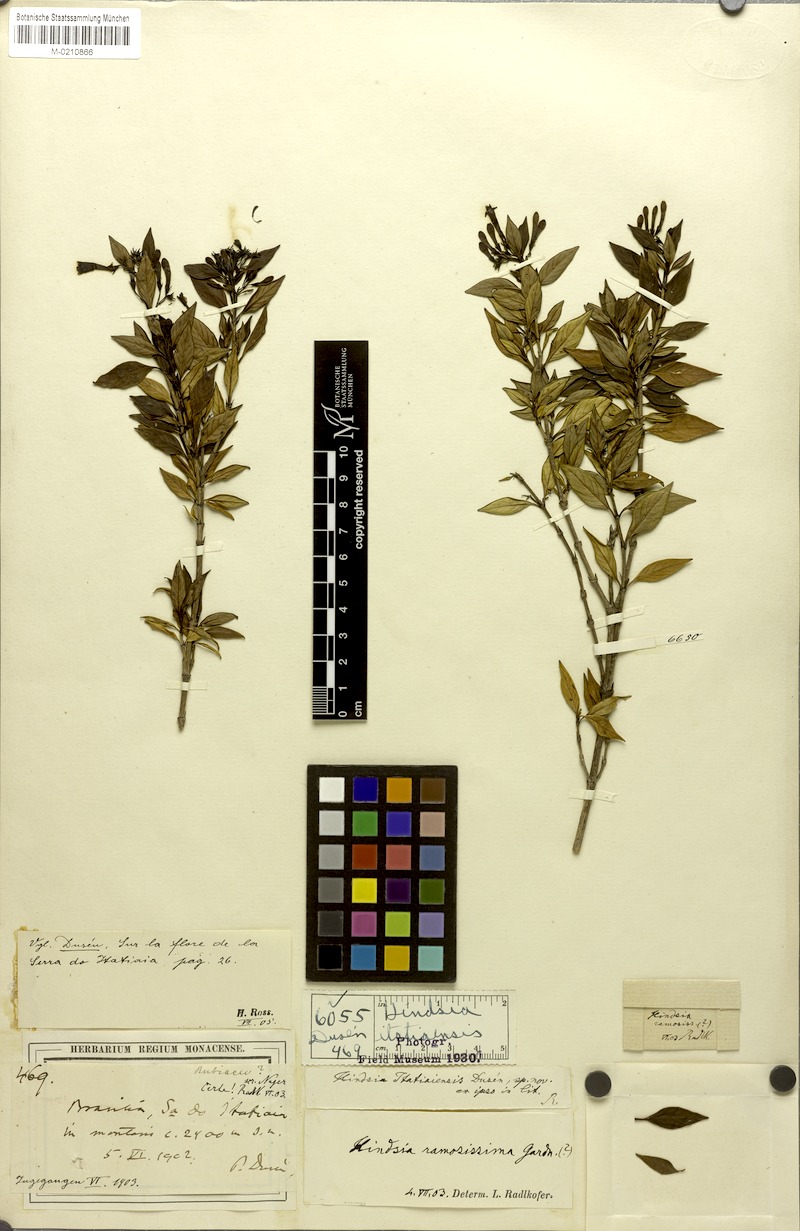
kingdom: Plantae
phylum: Tracheophyta
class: Magnoliopsida
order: Gentianales
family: Rubiaceae
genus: Hindsia
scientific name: Hindsia glabra
